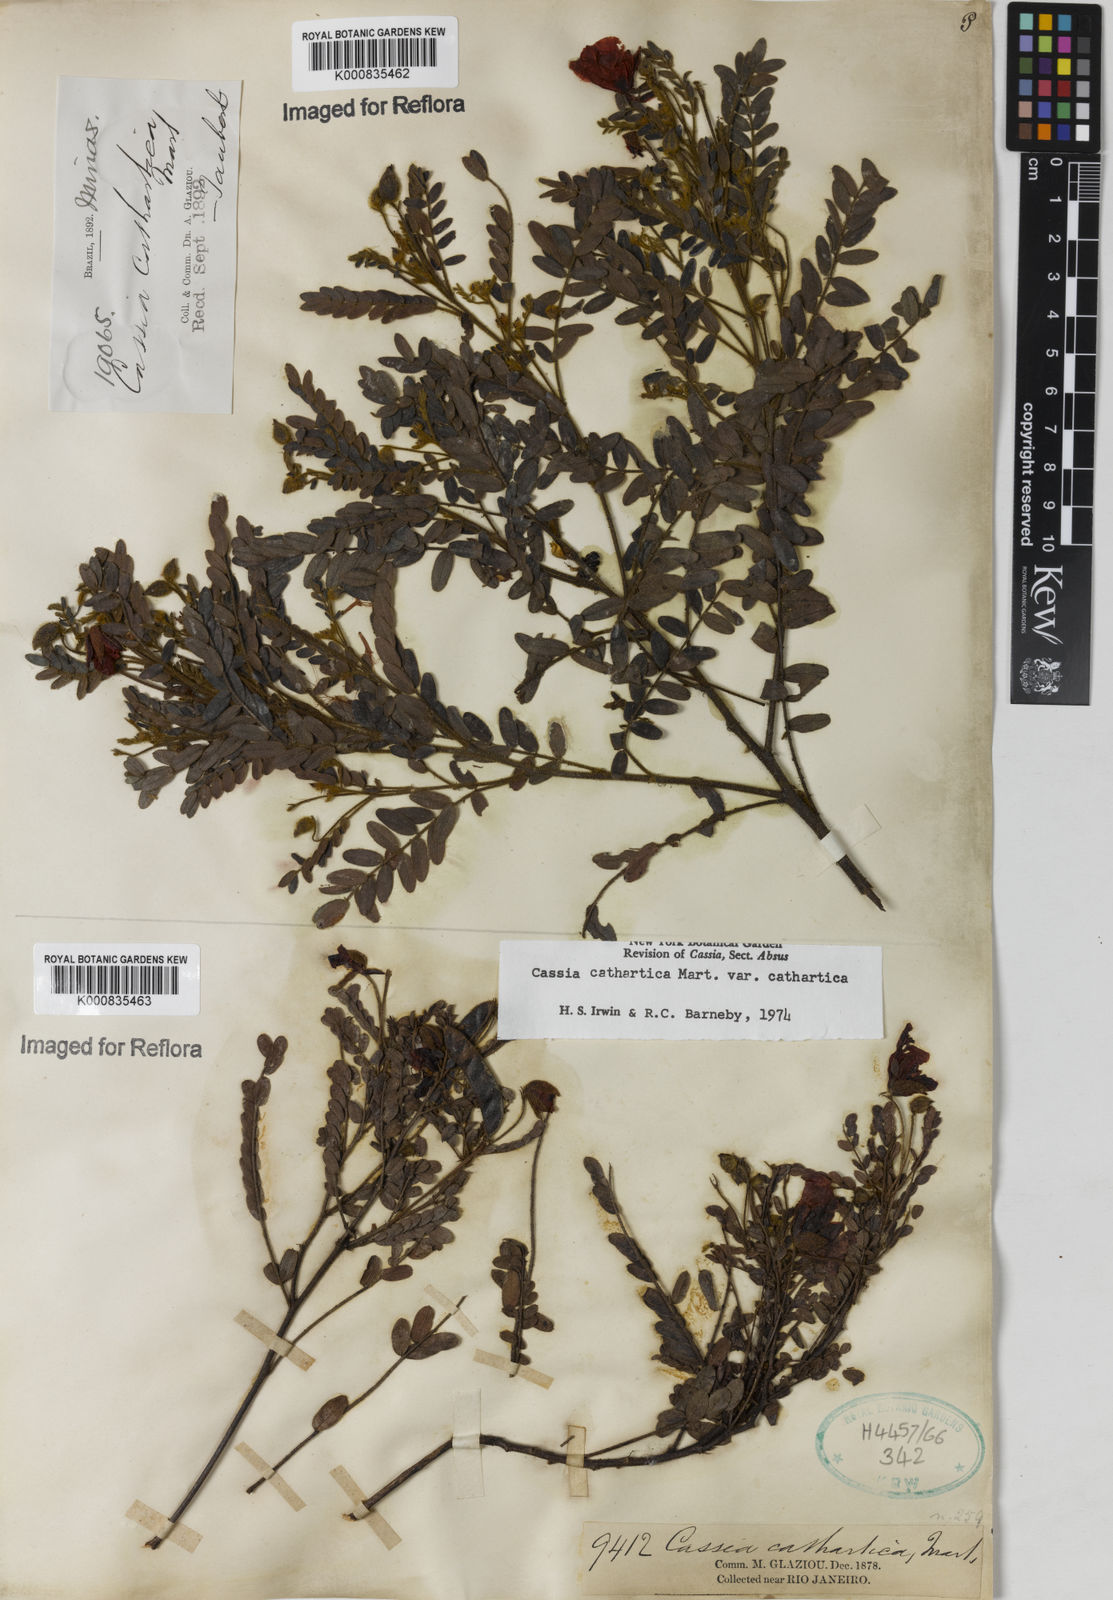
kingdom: Plantae
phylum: Tracheophyta
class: Magnoliopsida
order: Fabales
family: Fabaceae
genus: Chamaecrista
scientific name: Chamaecrista cathartica
